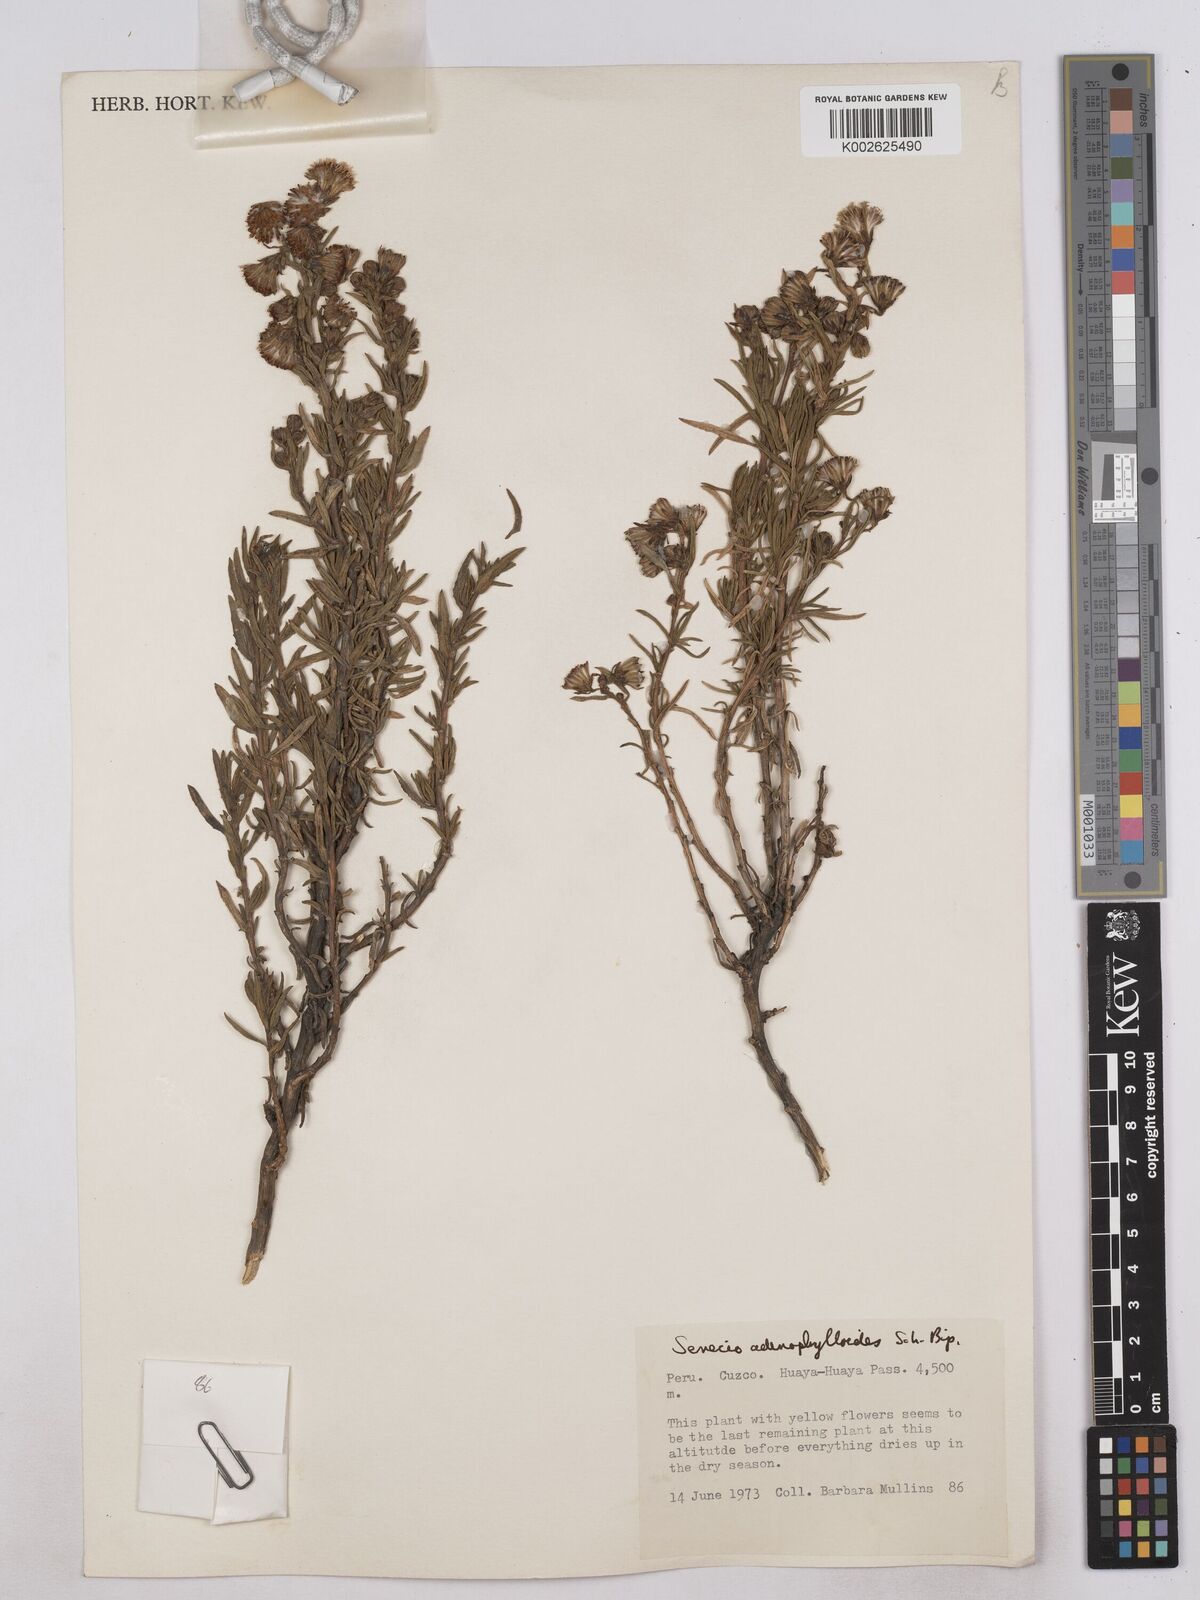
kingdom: Plantae
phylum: Tracheophyta
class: Magnoliopsida
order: Asterales
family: Asteraceae
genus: Senecio
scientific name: Senecio rufescens
